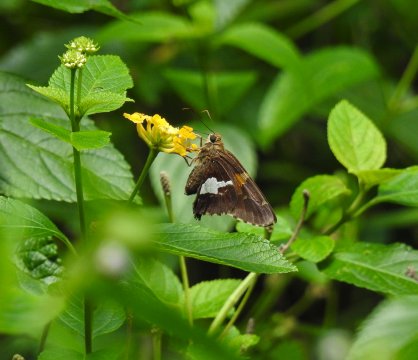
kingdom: Animalia
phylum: Arthropoda
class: Insecta
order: Lepidoptera
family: Hesperiidae
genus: Epargyreus
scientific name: Epargyreus clarus
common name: Silver-spotted Skipper
